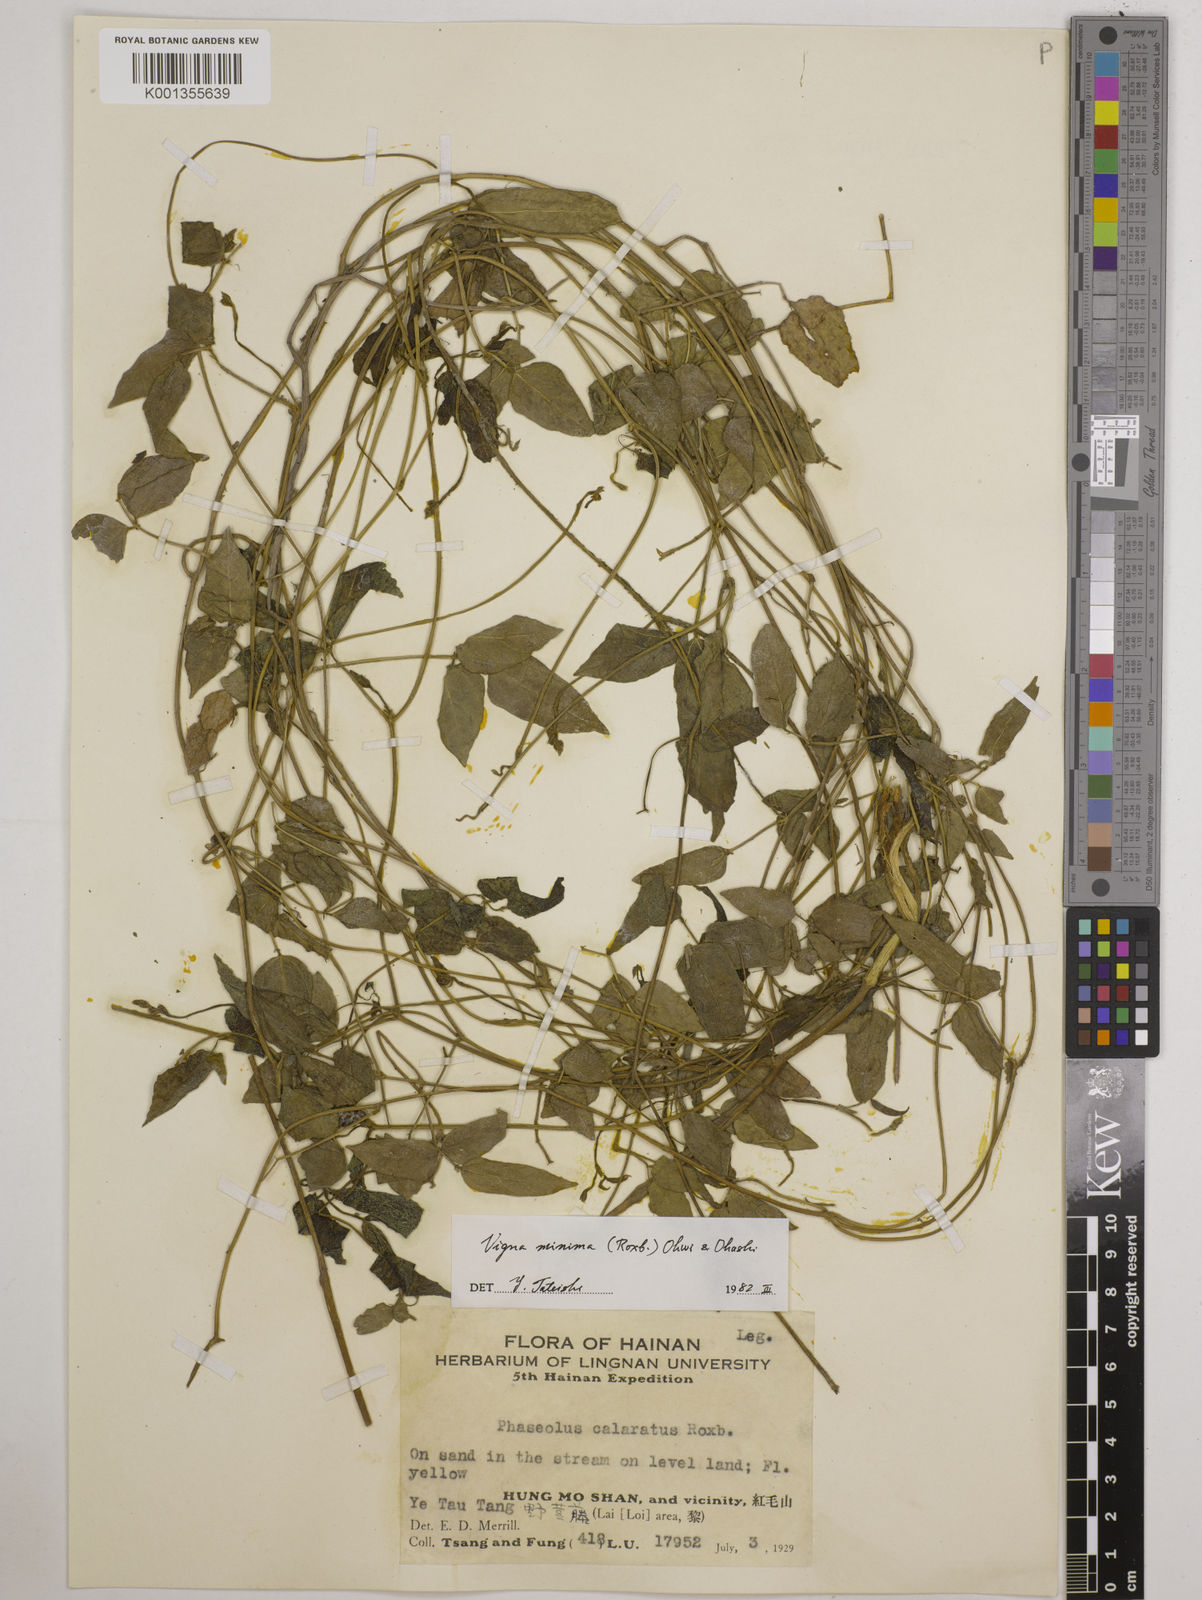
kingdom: Plantae
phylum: Tracheophyta
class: Magnoliopsida
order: Fabales
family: Fabaceae
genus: Vigna
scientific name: Vigna minima
